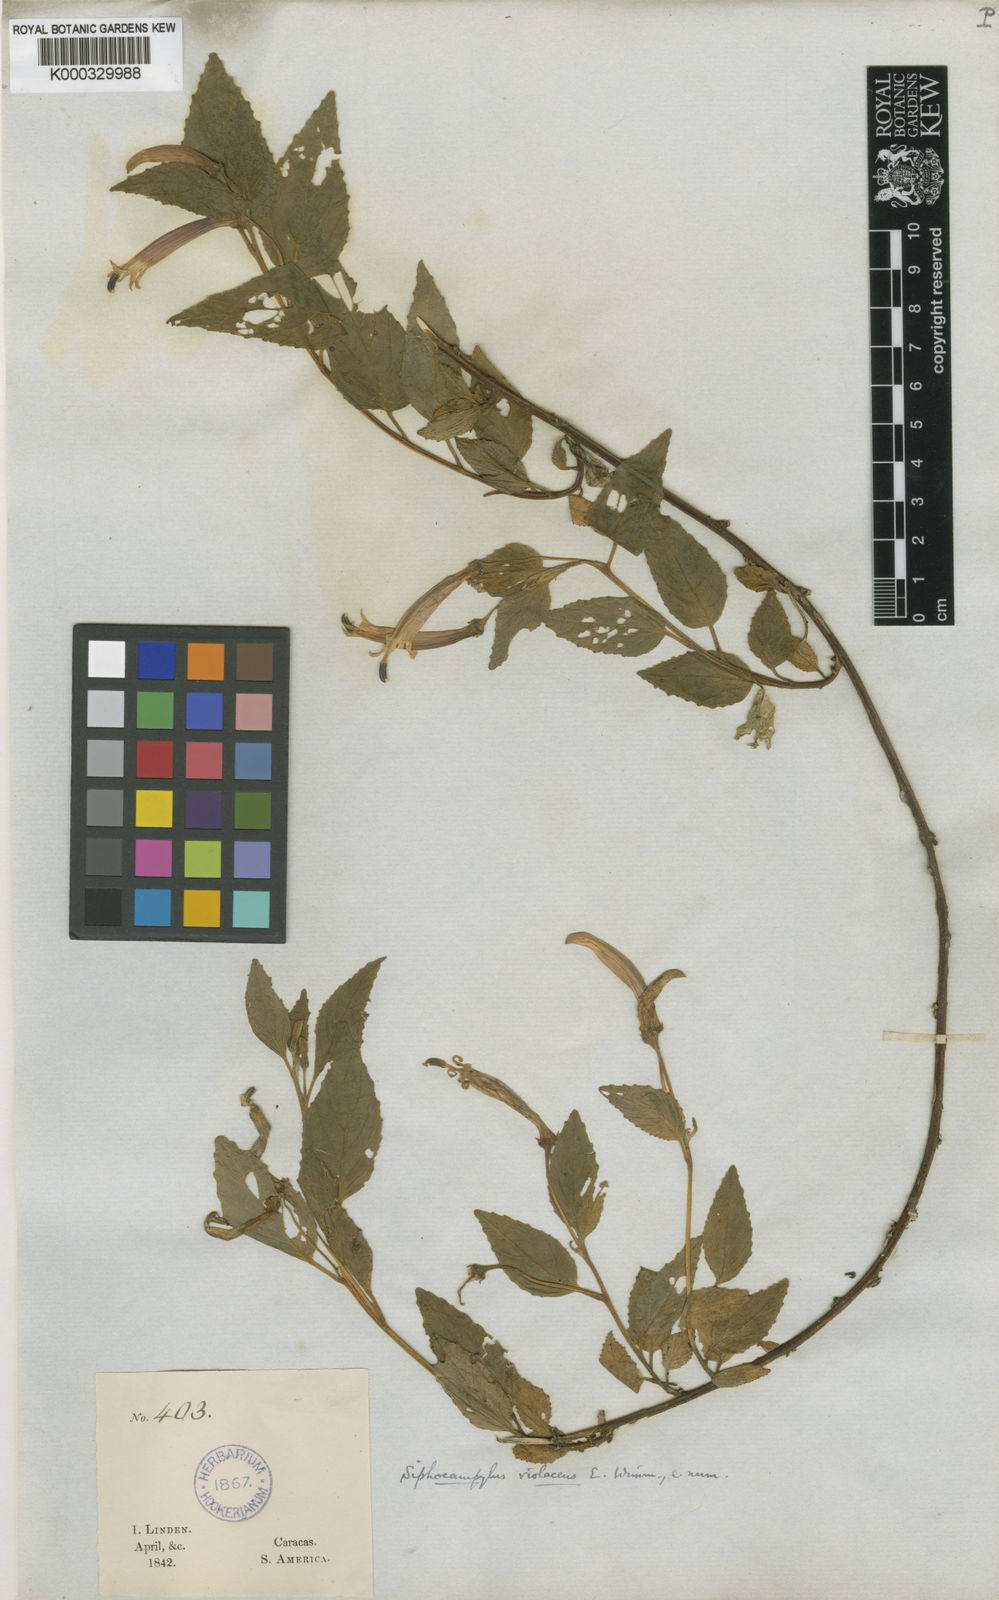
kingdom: Plantae
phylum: Tracheophyta
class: Magnoliopsida
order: Asterales
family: Campanulaceae
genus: Siphocampylus
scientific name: Siphocampylus violaceus
